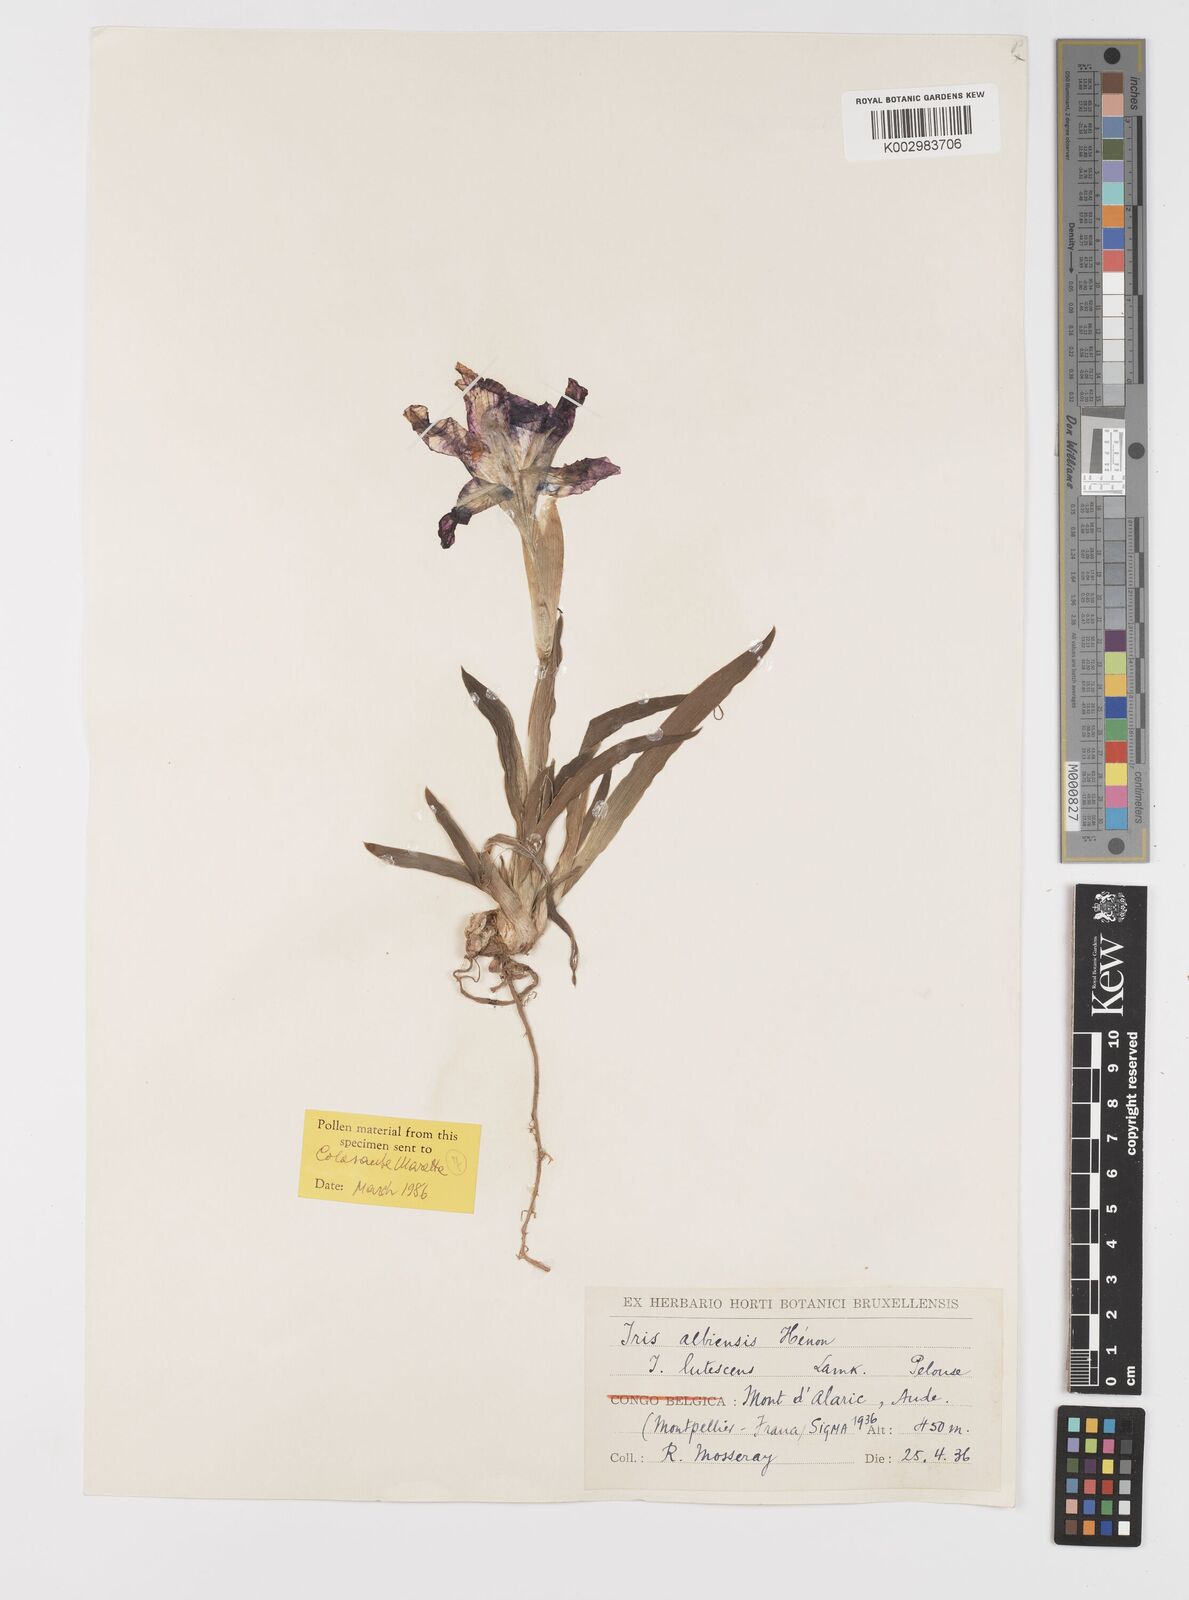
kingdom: Plantae
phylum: Tracheophyta
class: Liliopsida
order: Asparagales
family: Iridaceae
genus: Iris
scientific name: Iris lutescens
